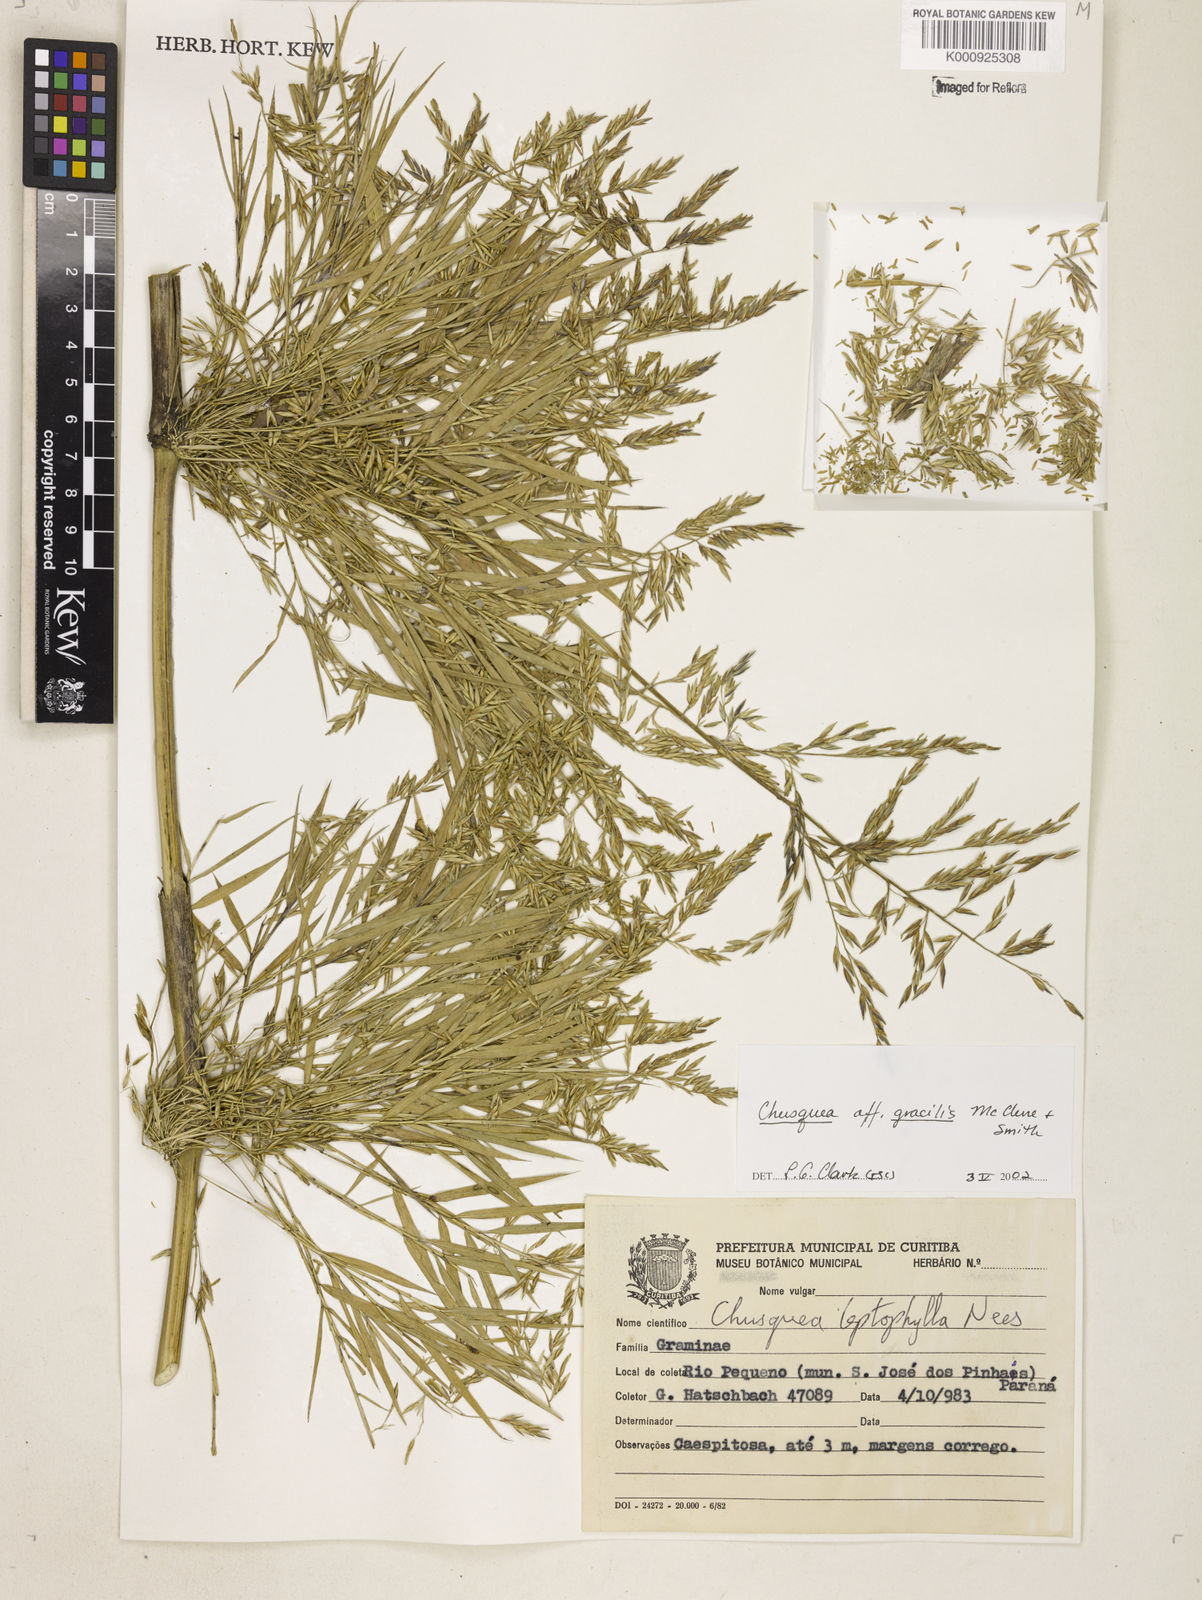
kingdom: Plantae
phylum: Tracheophyta
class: Liliopsida
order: Poales
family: Poaceae
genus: Chusquea
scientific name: Chusquea gracilis
